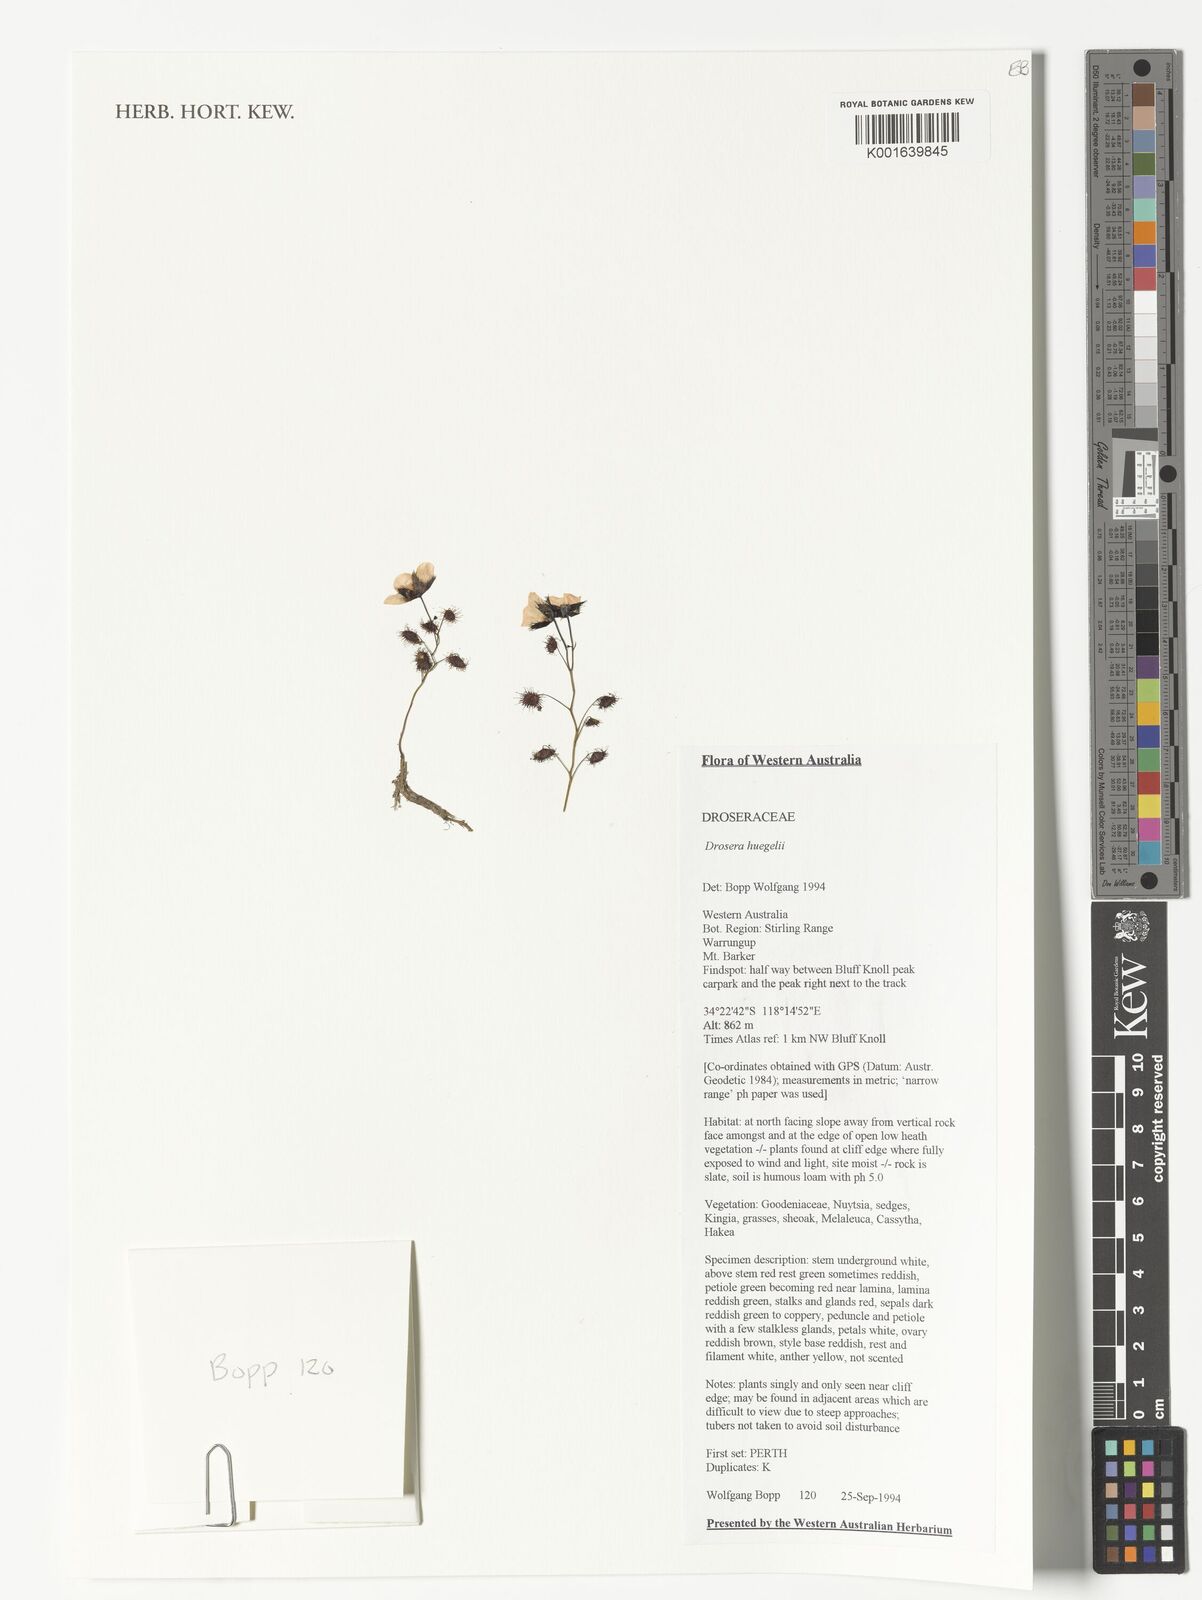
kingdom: Plantae
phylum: Tracheophyta
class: Magnoliopsida
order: Caryophyllales
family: Droseraceae
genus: Drosera
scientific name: Drosera huegelii
